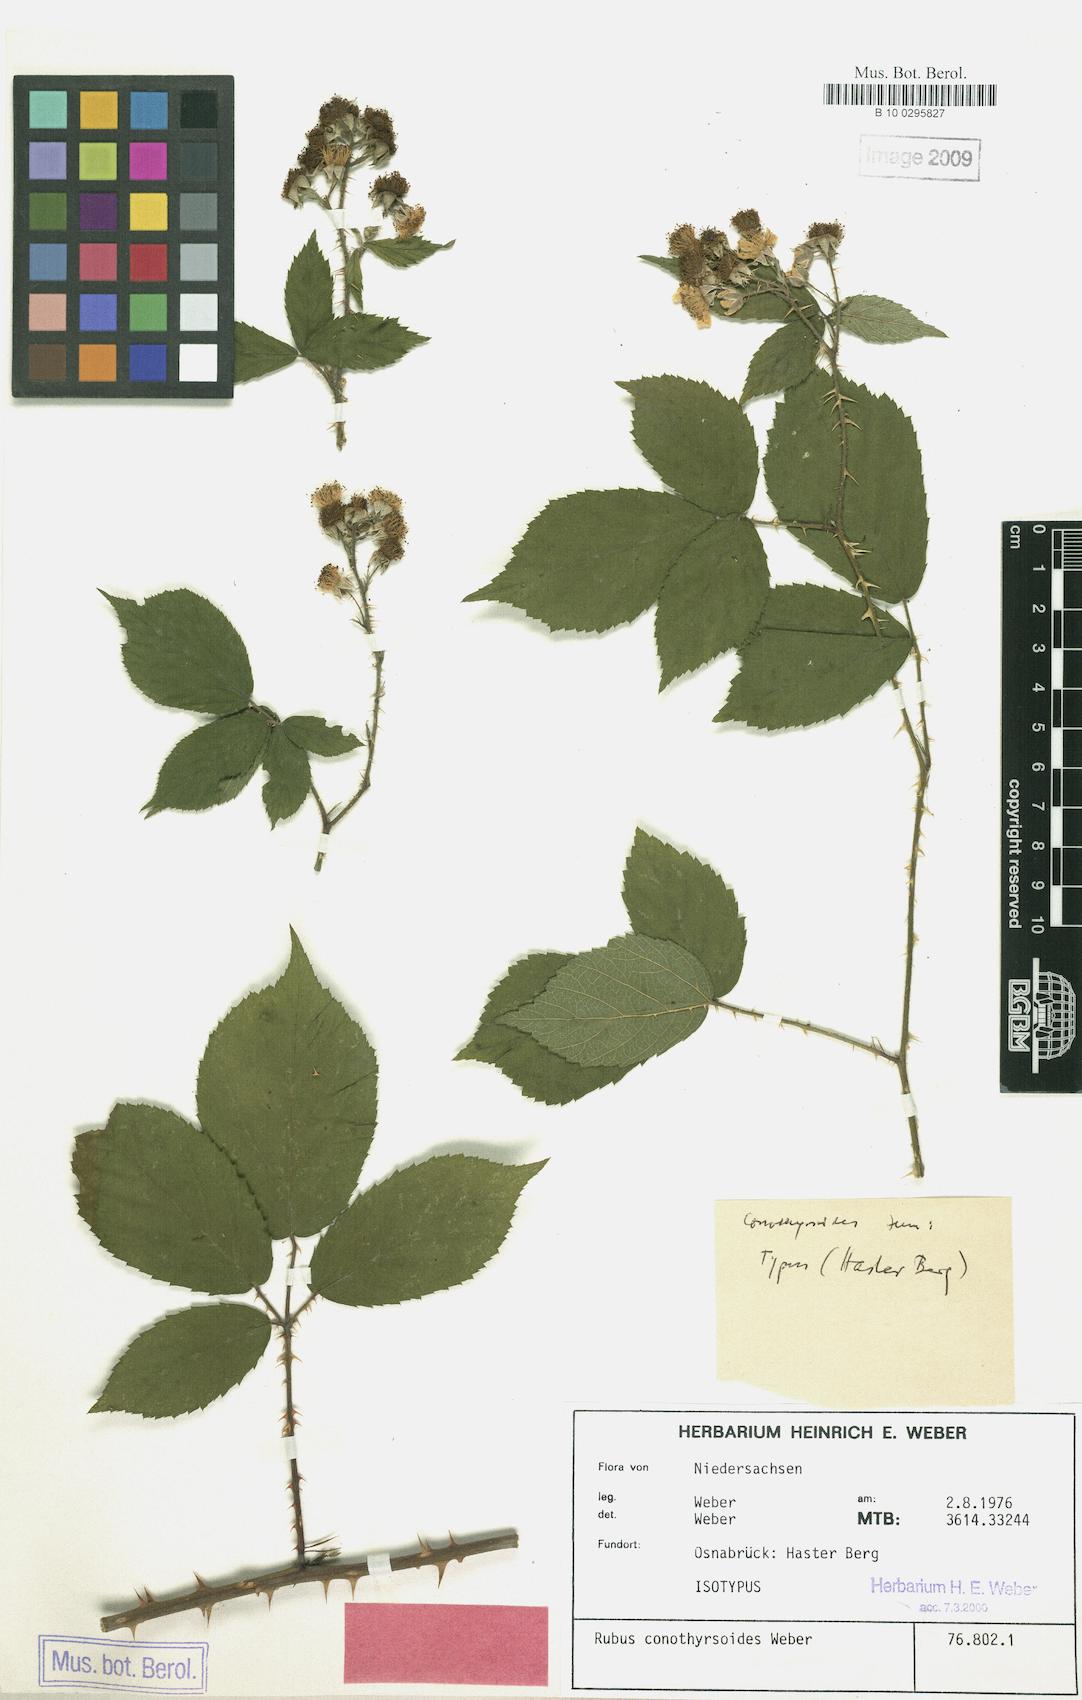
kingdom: Plantae
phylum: Tracheophyta
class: Magnoliopsida
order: Rosales
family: Rosaceae
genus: Rubus
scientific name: Rubus conothyrsoides
